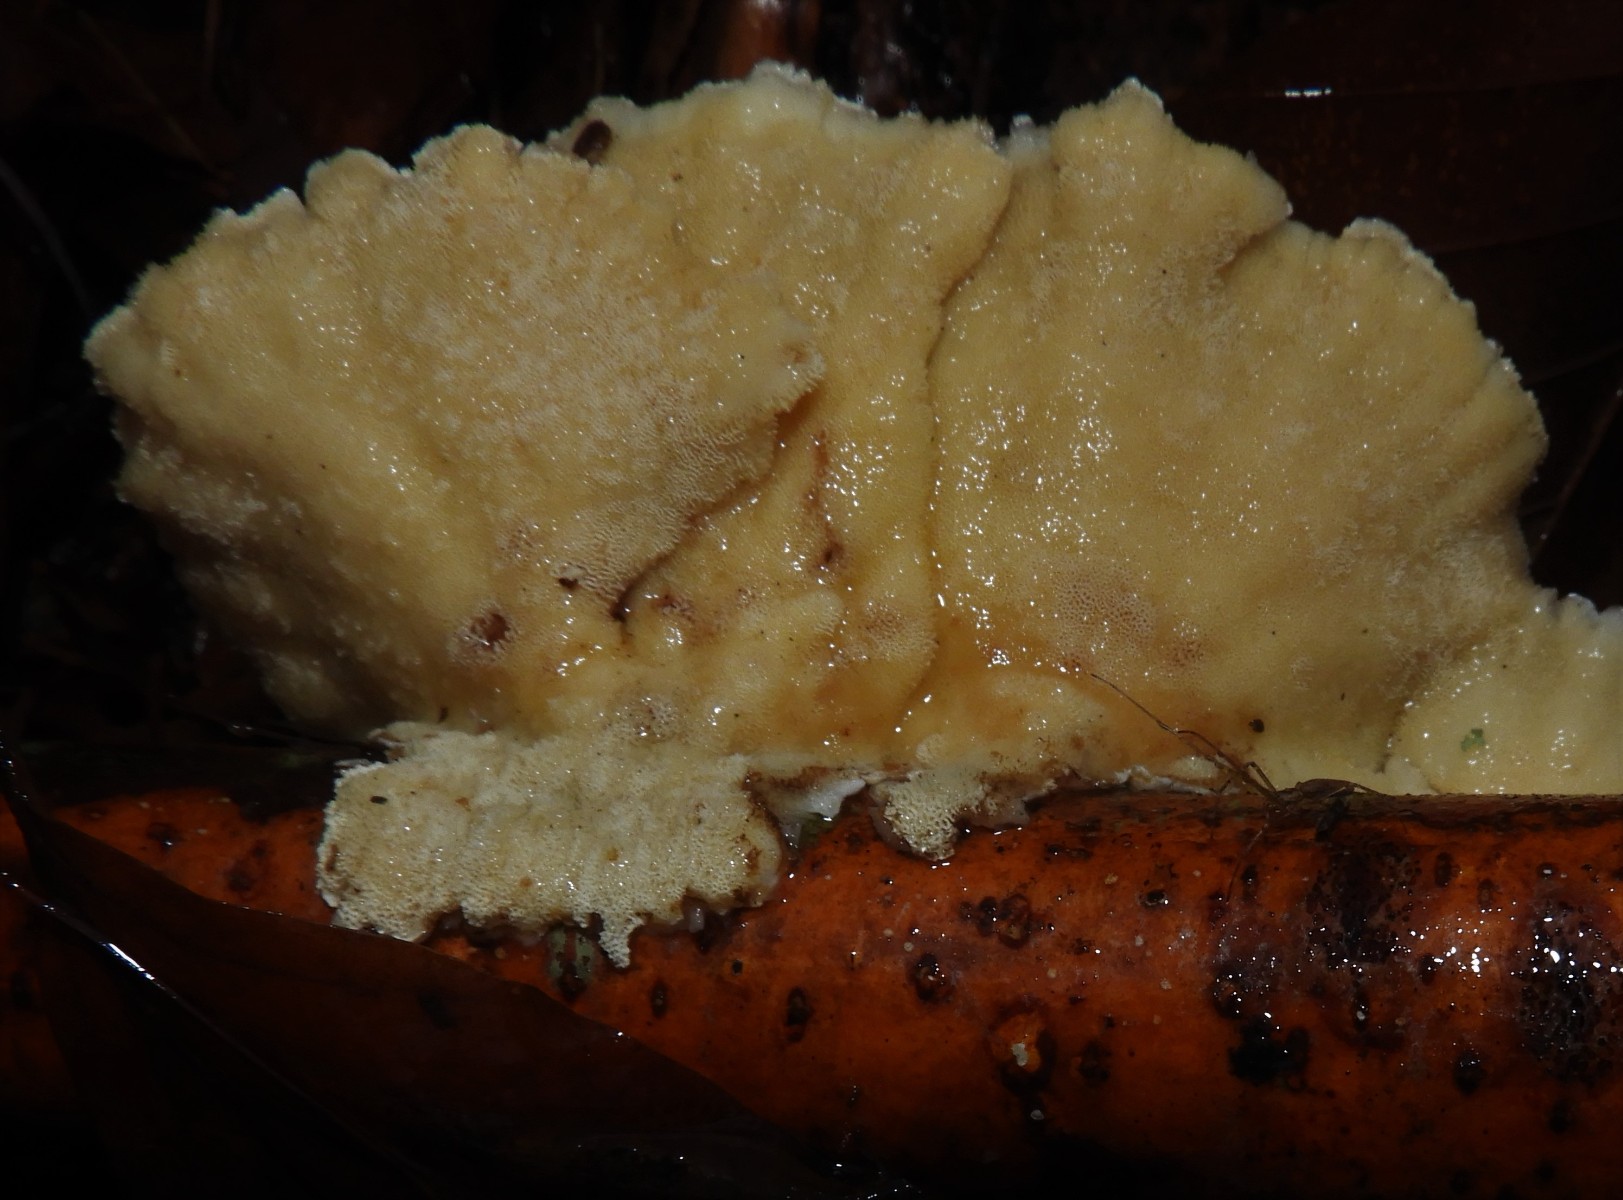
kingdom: Fungi
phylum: Basidiomycota
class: Agaricomycetes
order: Polyporales
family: Polyporaceae
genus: Trametes
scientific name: Trametes ochracea
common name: bæltet læderporesvamp
